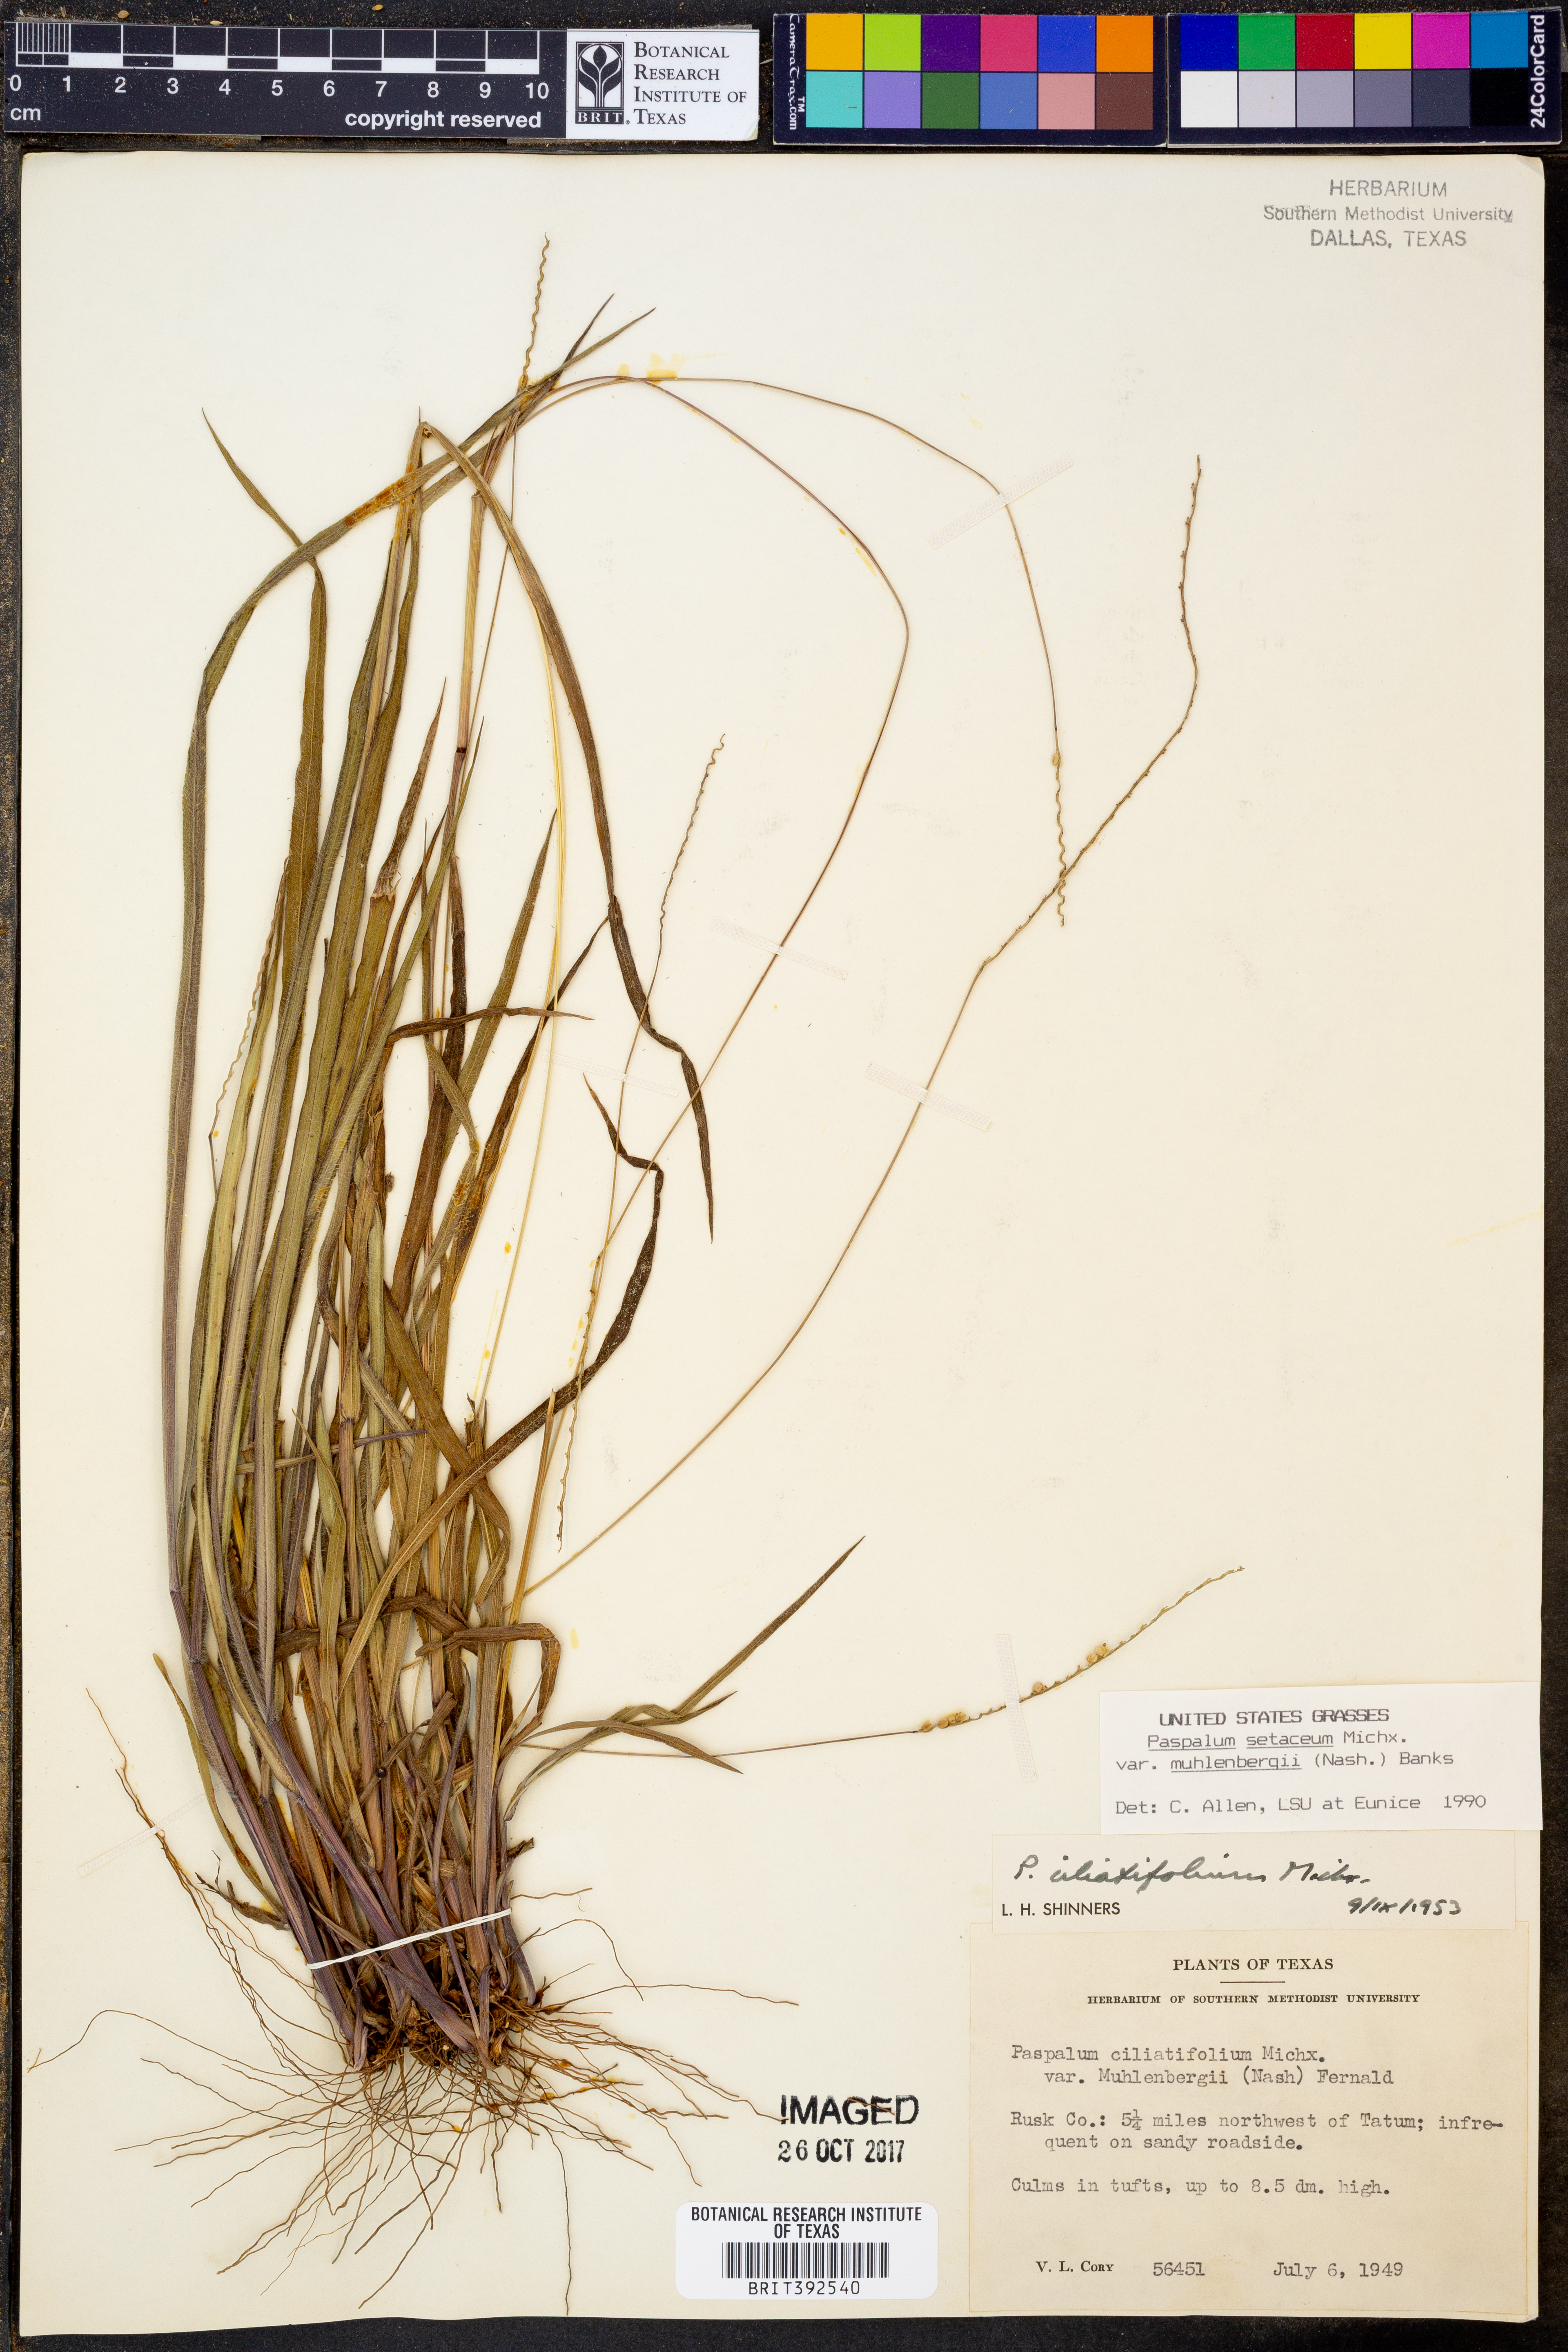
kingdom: Plantae
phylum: Tracheophyta
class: Liliopsida
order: Poales
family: Poaceae
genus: Paspalum
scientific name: Paspalum setaceum
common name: Slender paspalum
